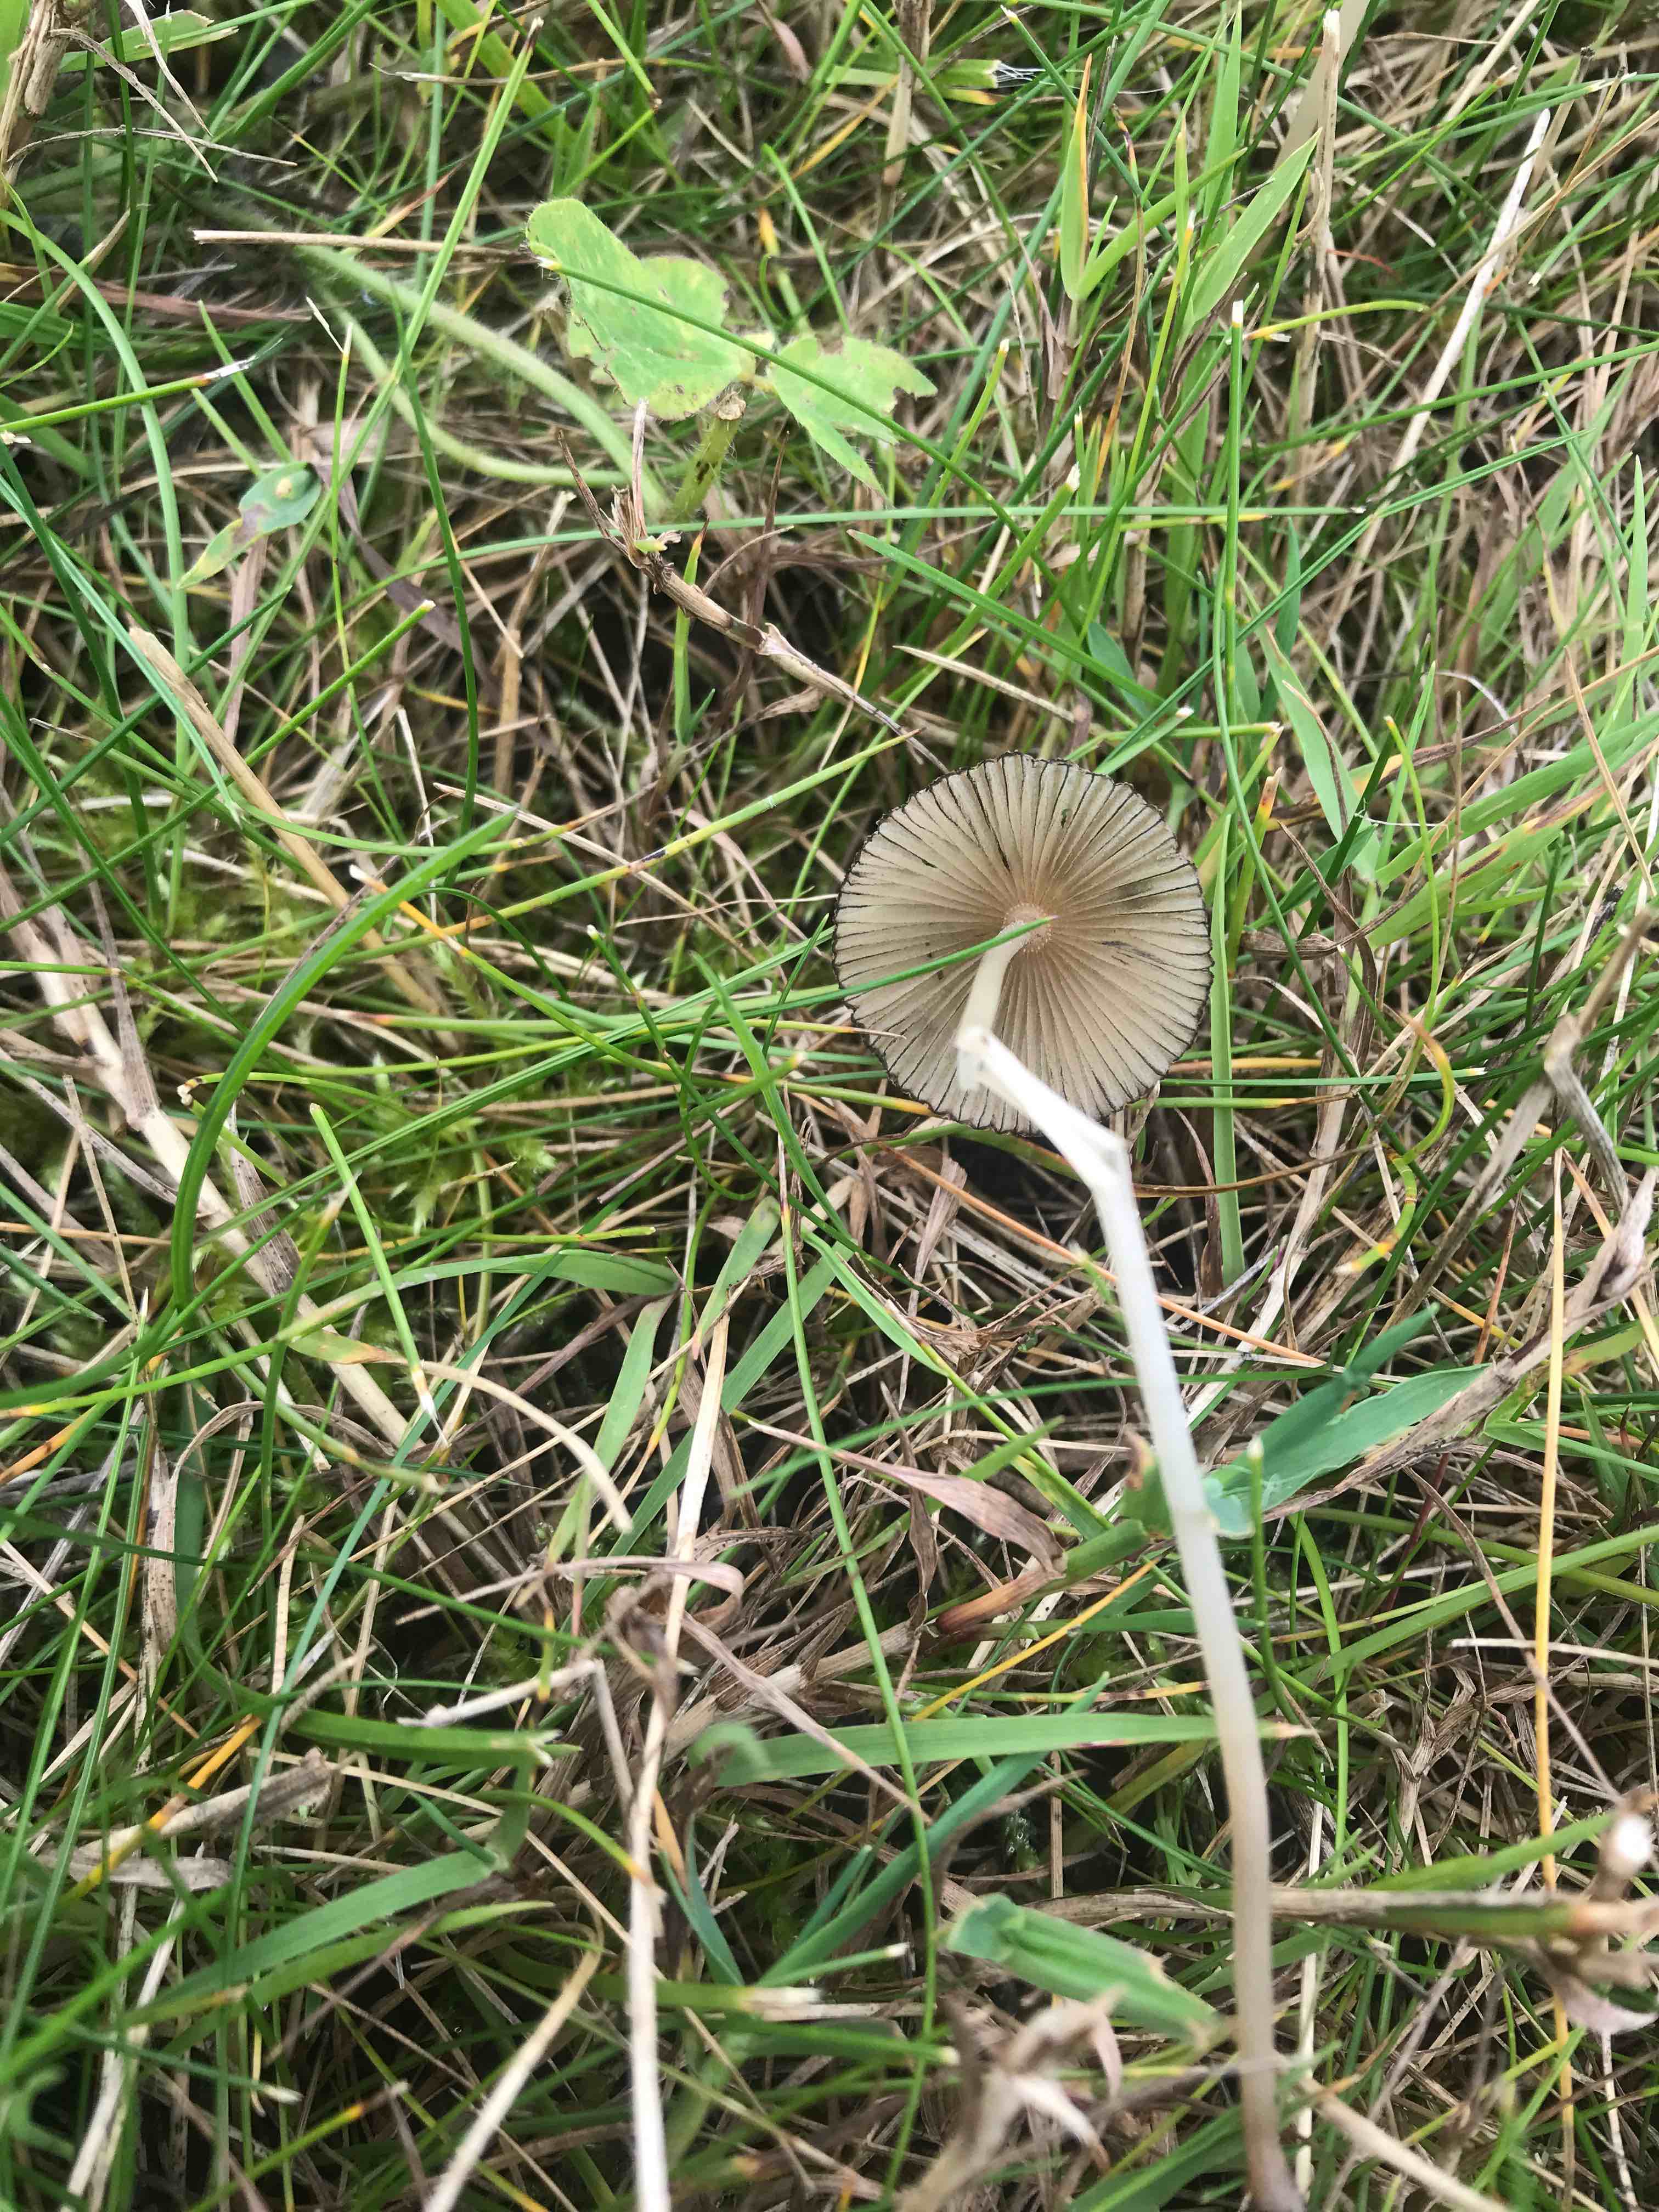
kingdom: Fungi
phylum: Basidiomycota
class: Agaricomycetes
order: Agaricales
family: Psathyrellaceae
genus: Parasola
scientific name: Parasola
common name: hjulhat
